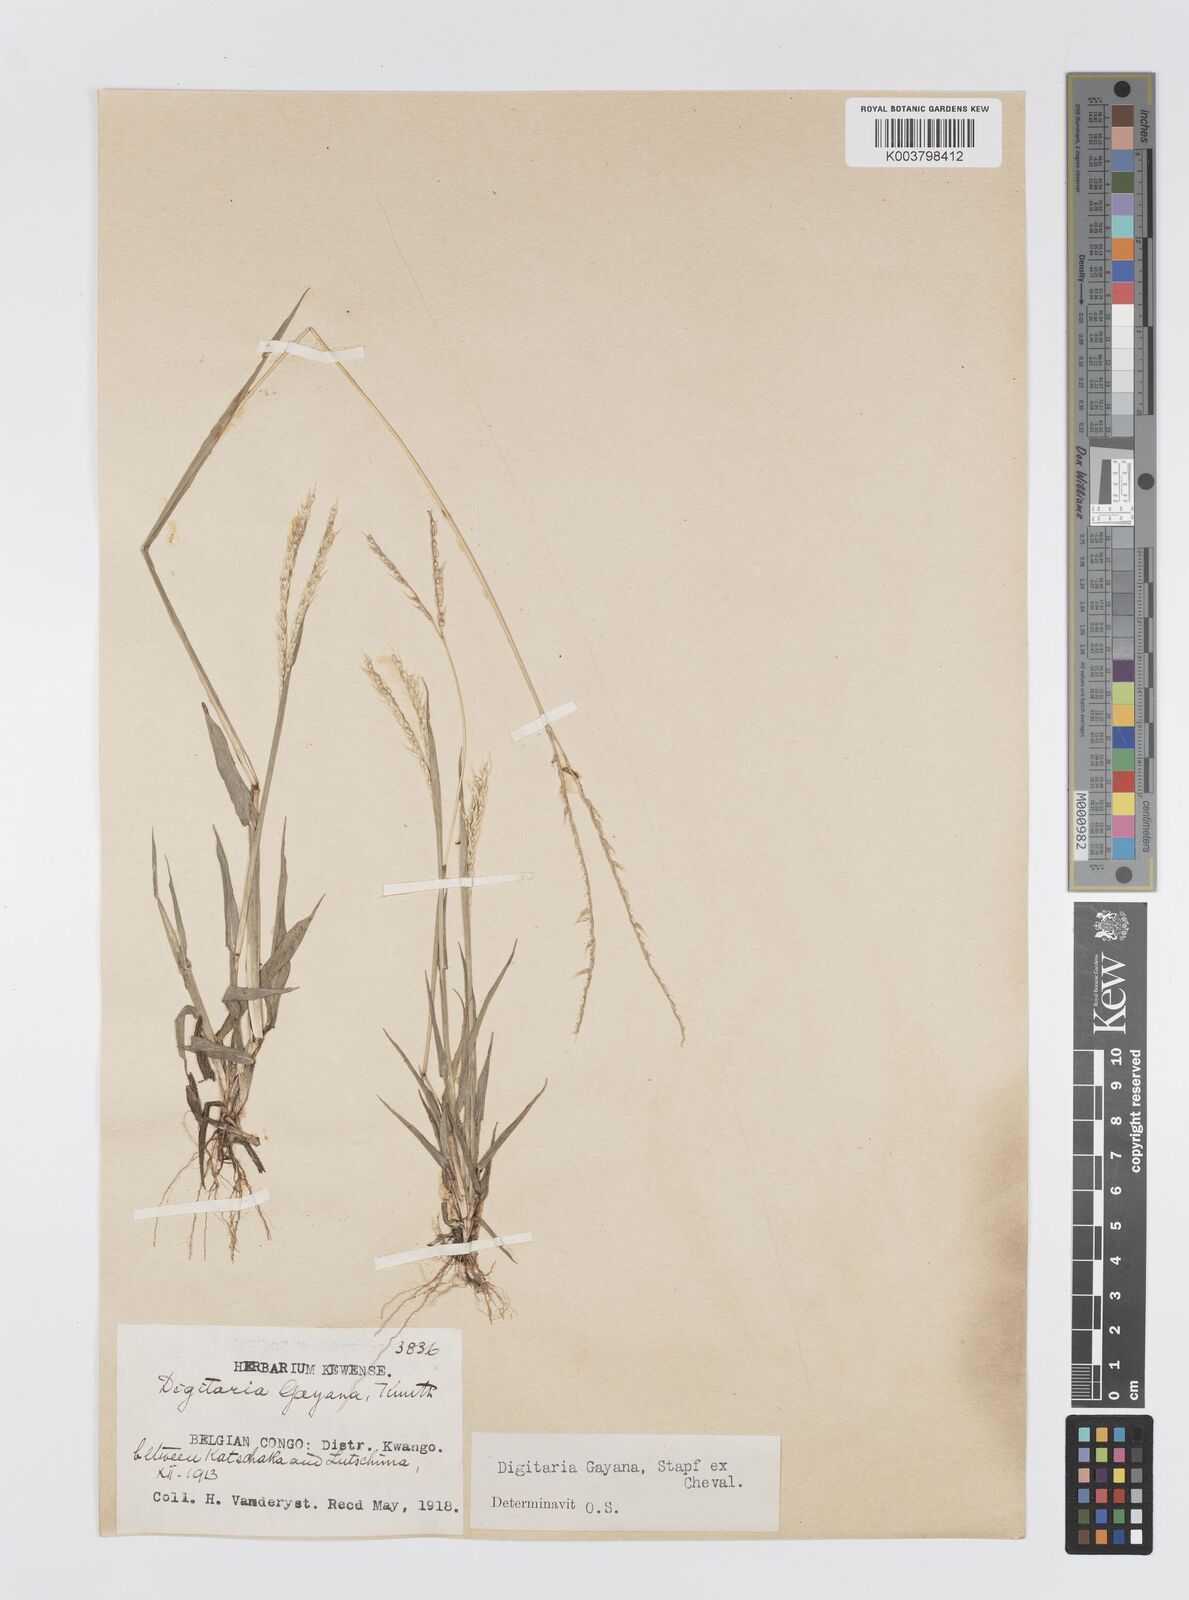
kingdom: Plantae
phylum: Tracheophyta
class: Liliopsida
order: Poales
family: Poaceae
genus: Digitaria
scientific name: Digitaria gayana
